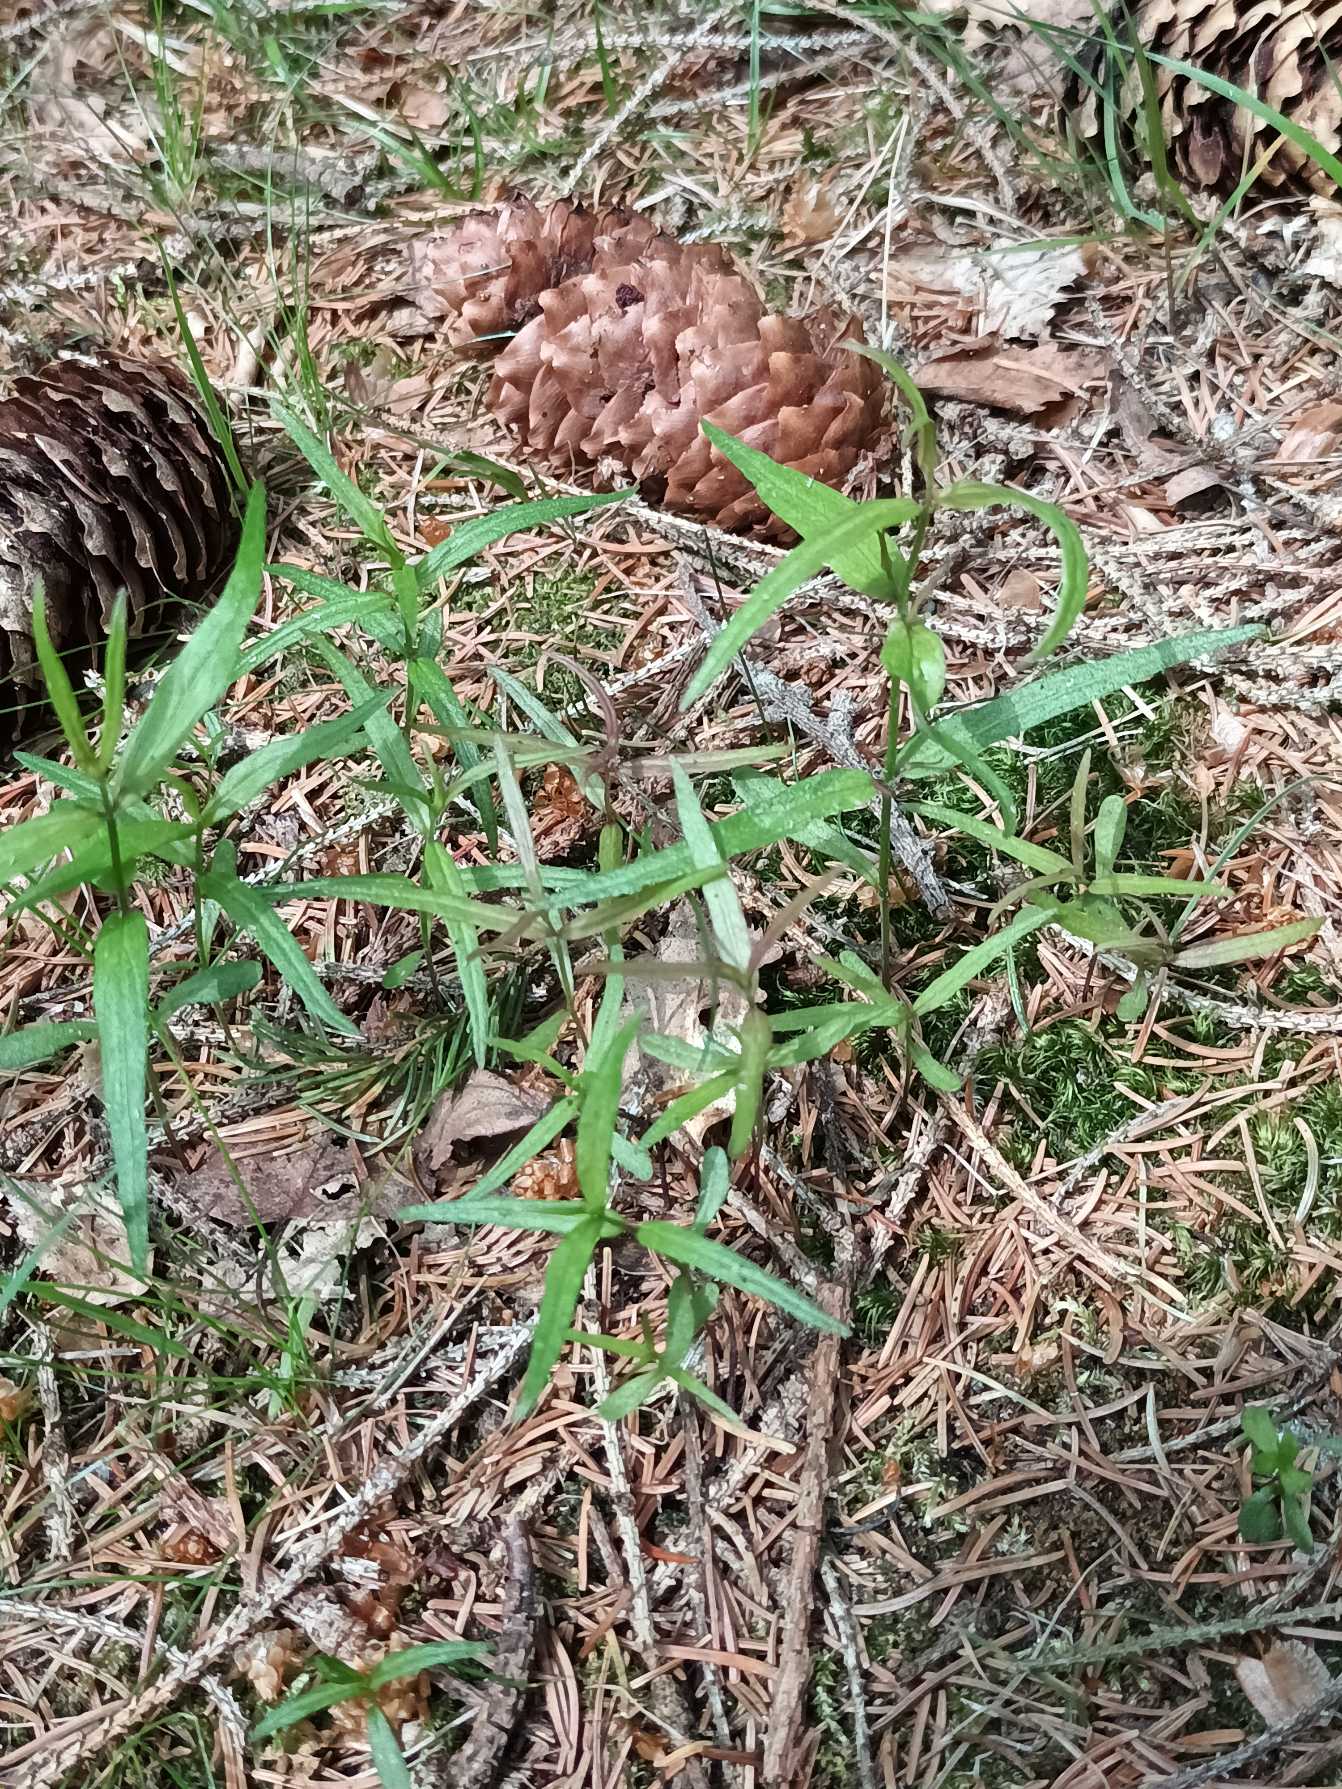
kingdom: Plantae
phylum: Tracheophyta
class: Magnoliopsida
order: Lamiales
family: Orobanchaceae
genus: Melampyrum
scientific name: Melampyrum pratense
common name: Almindelig kohvede
